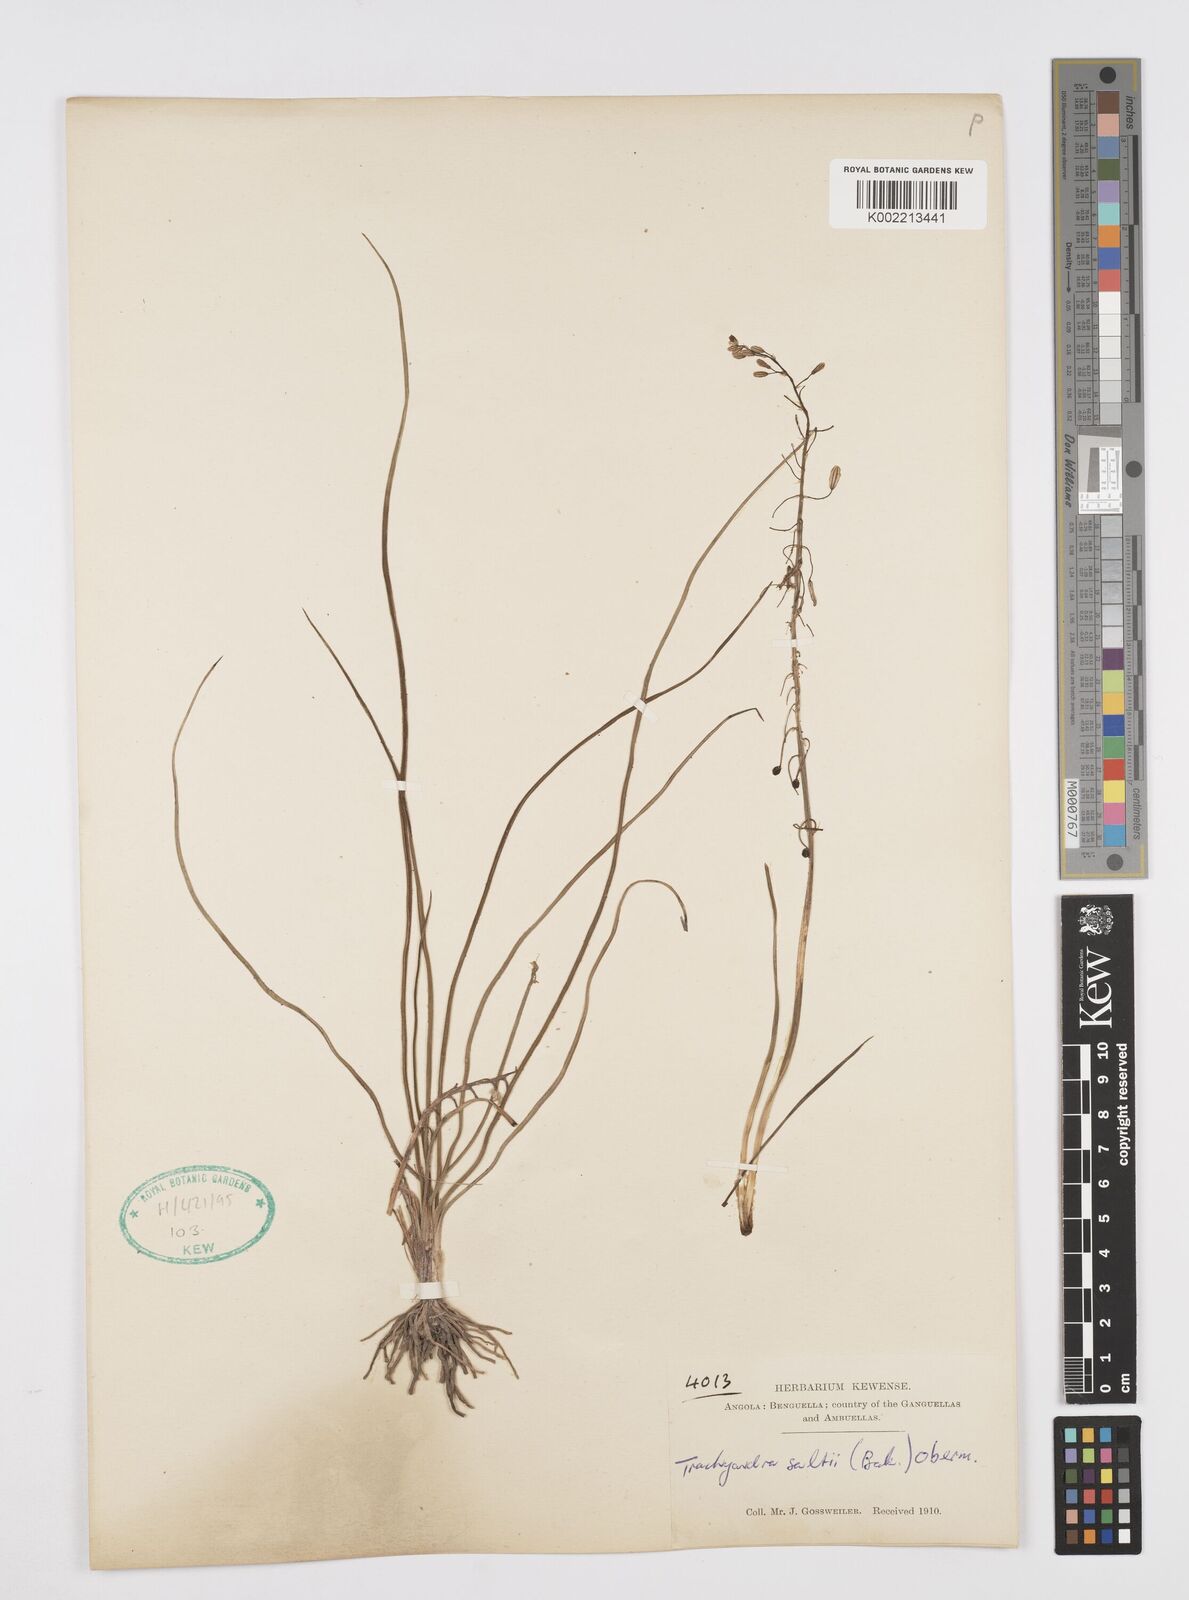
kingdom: Plantae
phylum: Tracheophyta
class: Liliopsida
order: Asparagales
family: Asphodelaceae
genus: Trachyandra
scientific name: Trachyandra saltii
